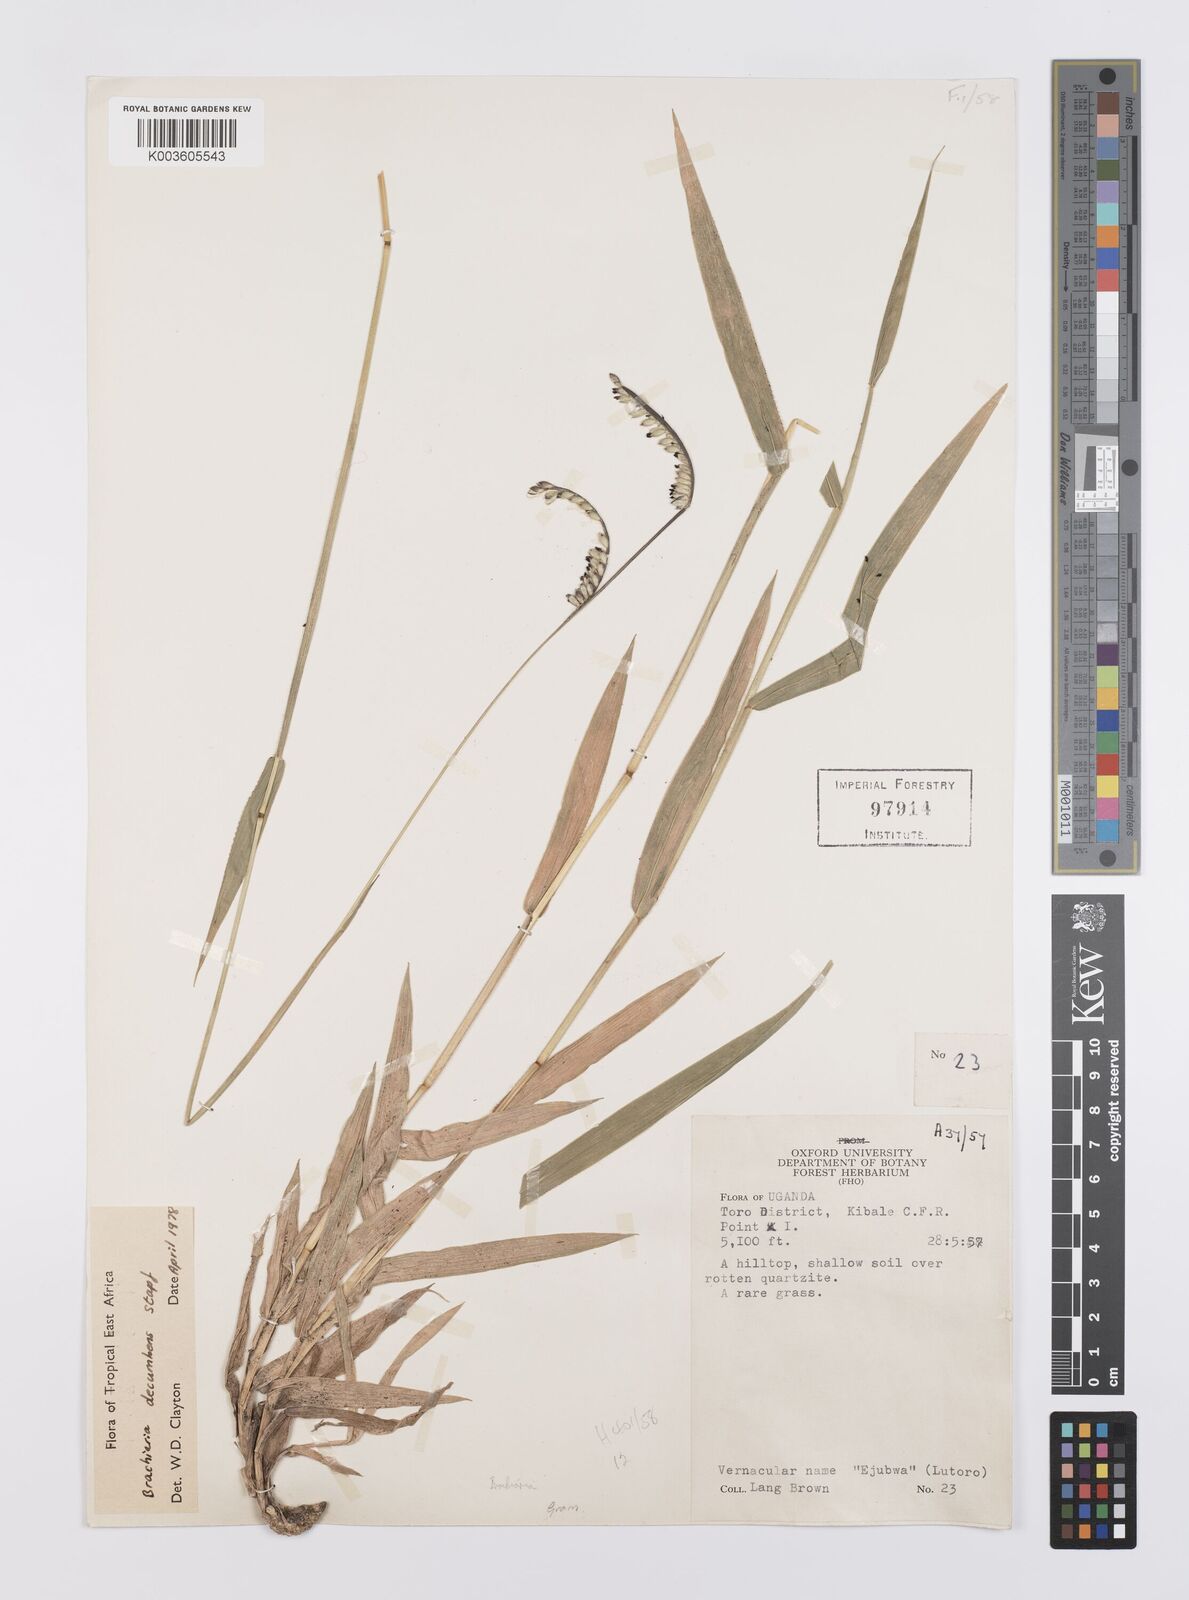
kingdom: Plantae
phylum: Tracheophyta
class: Liliopsida
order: Poales
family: Poaceae
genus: Urochloa
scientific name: Urochloa eminii
